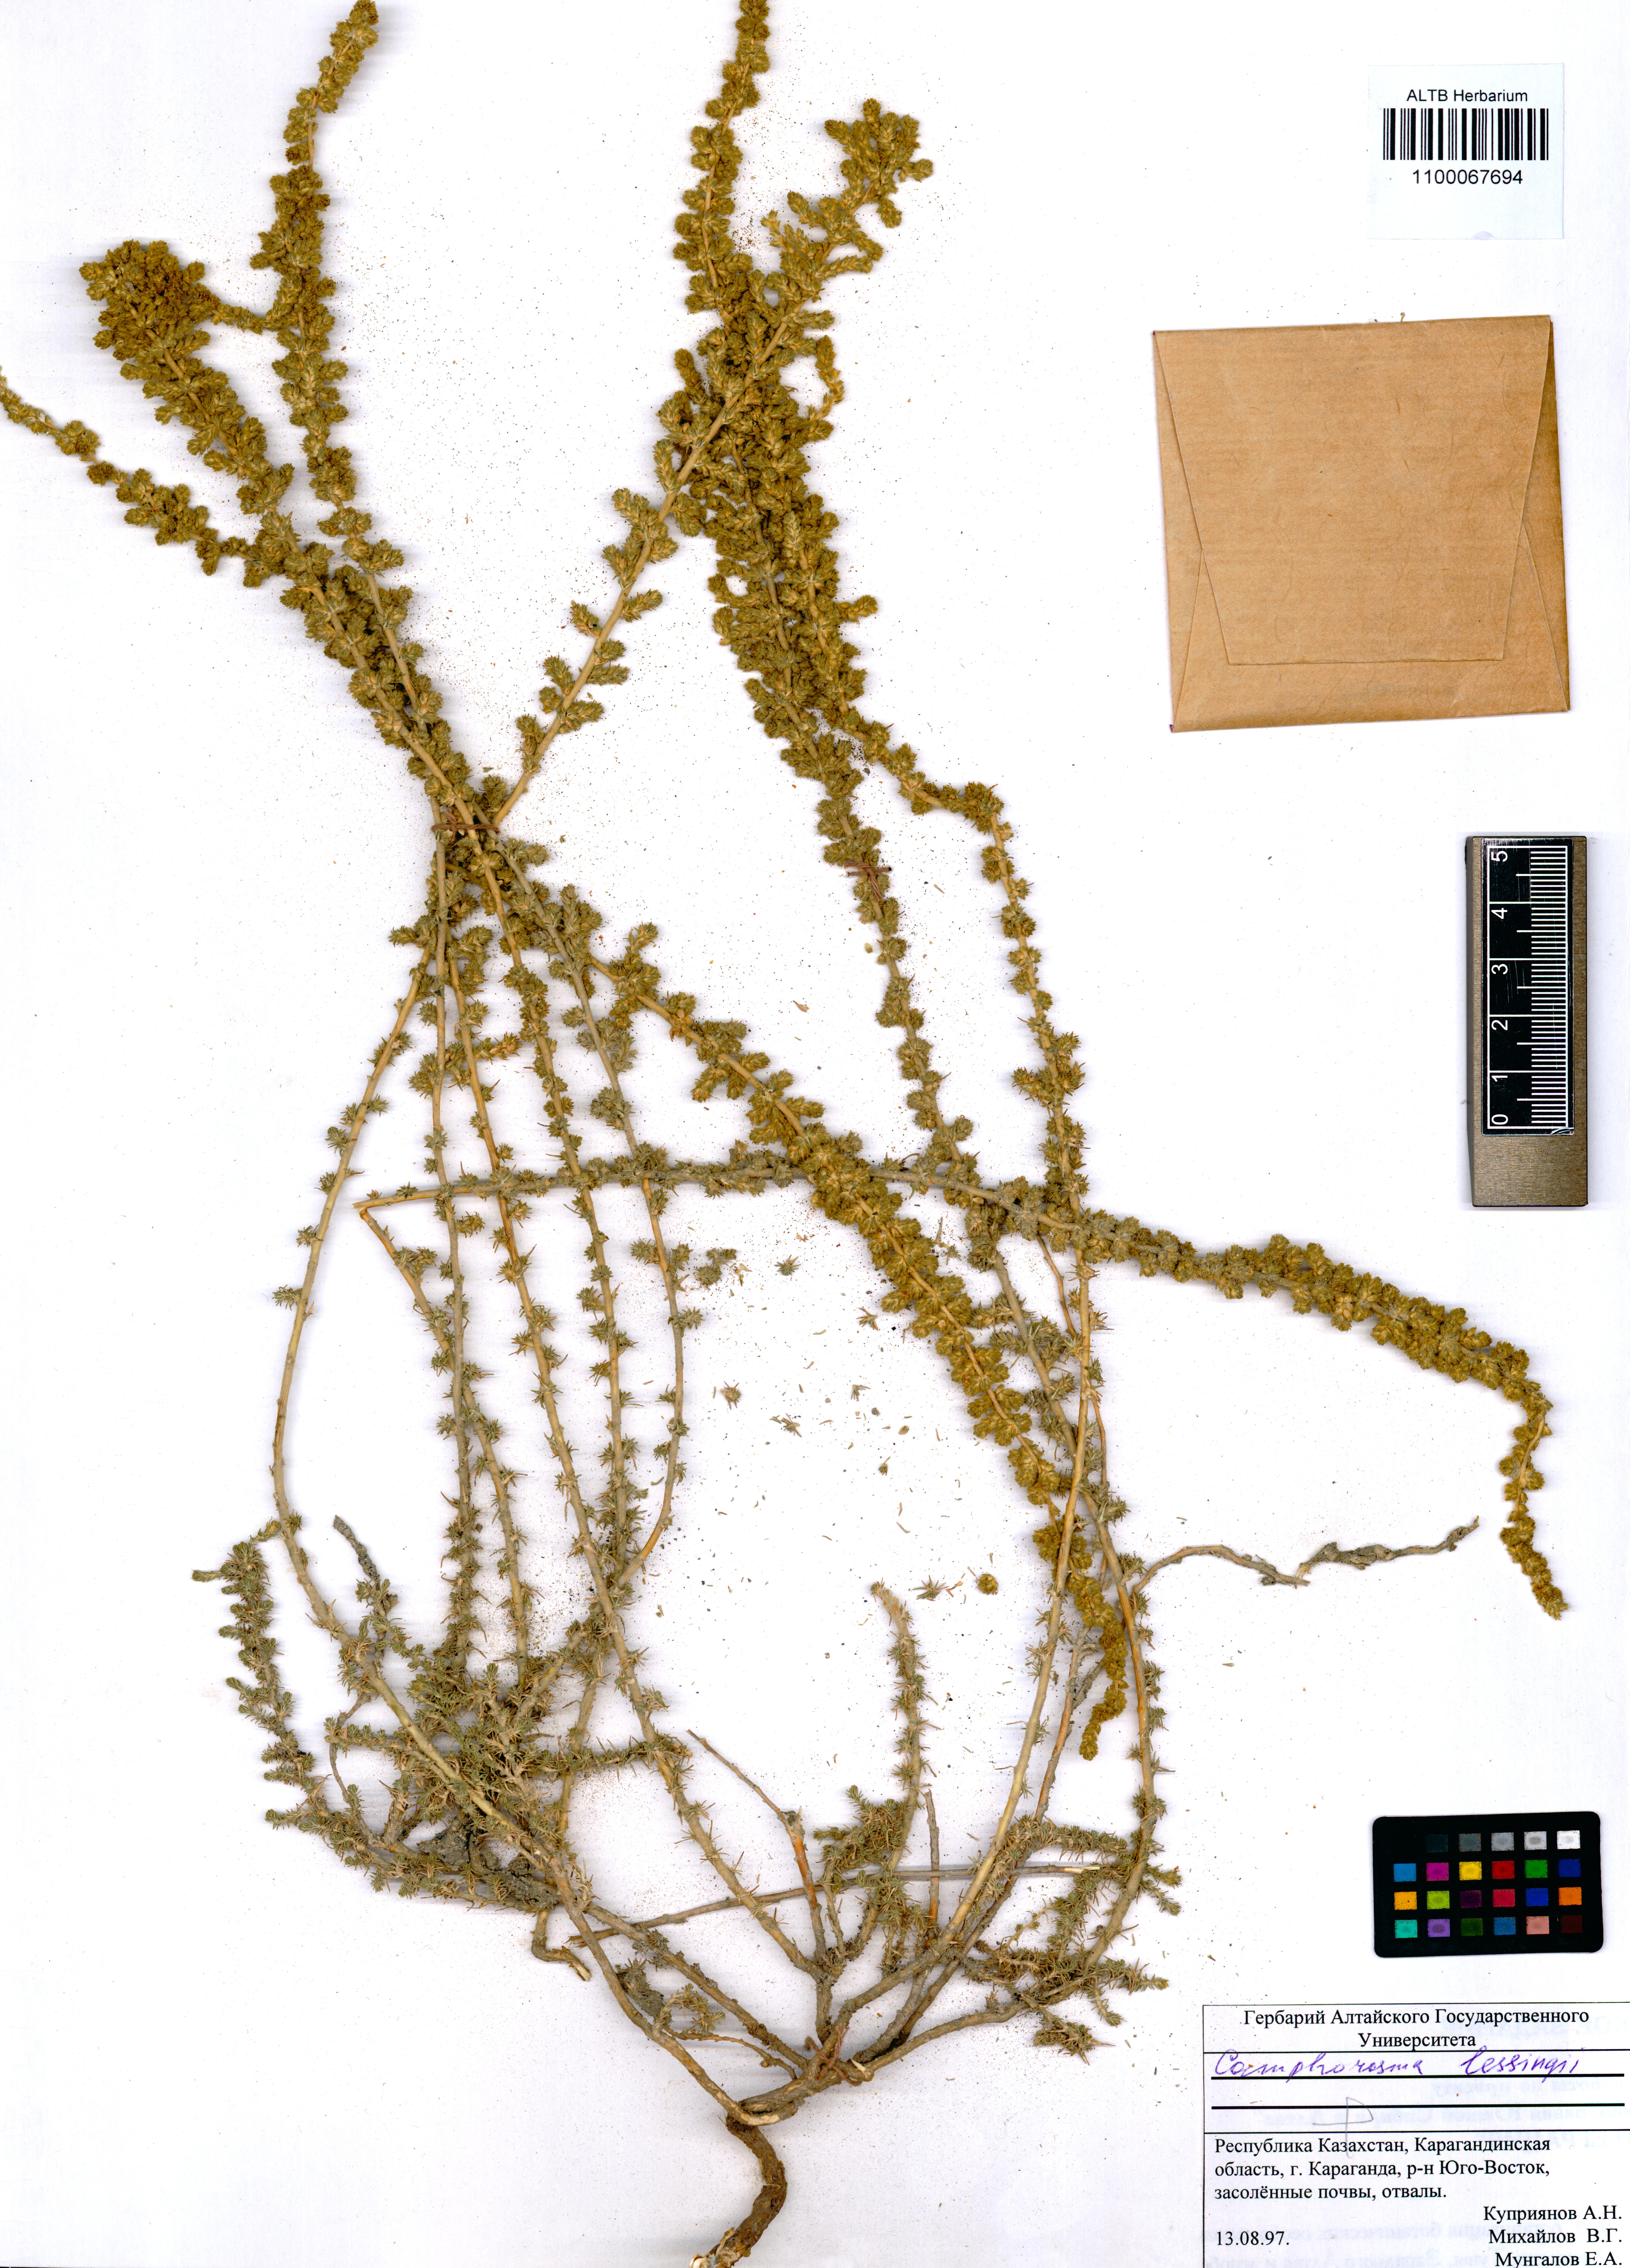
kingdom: Plantae
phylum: Tracheophyta
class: Magnoliopsida
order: Caryophyllales
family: Amaranthaceae
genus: Camphorosma
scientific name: Camphorosma monspeliaca
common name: Camphorfume
